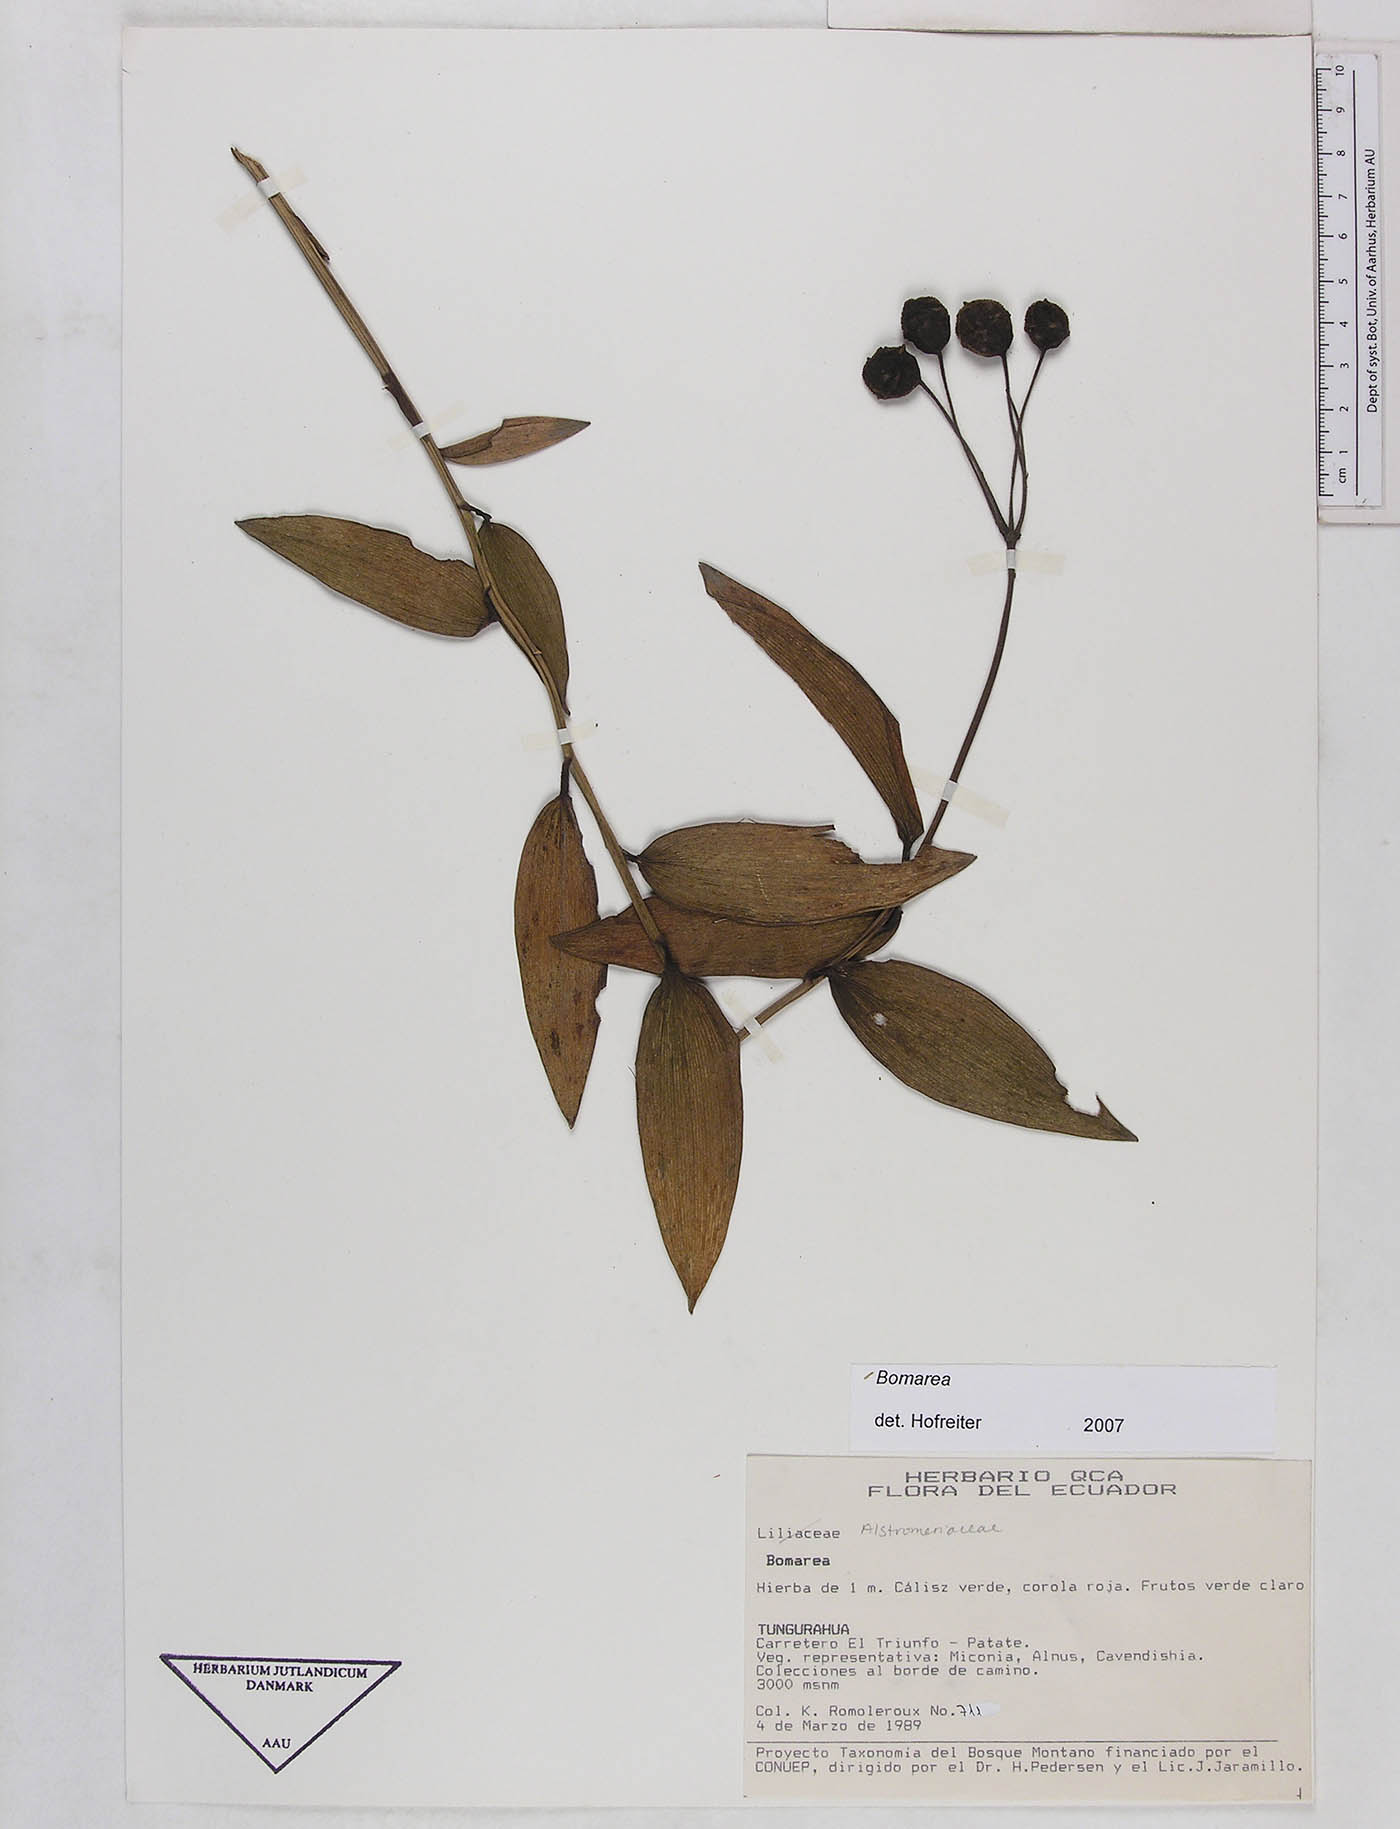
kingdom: Plantae
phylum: Tracheophyta
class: Liliopsida
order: Liliales
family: Alstroemeriaceae
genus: Bomarea
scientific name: Bomarea
